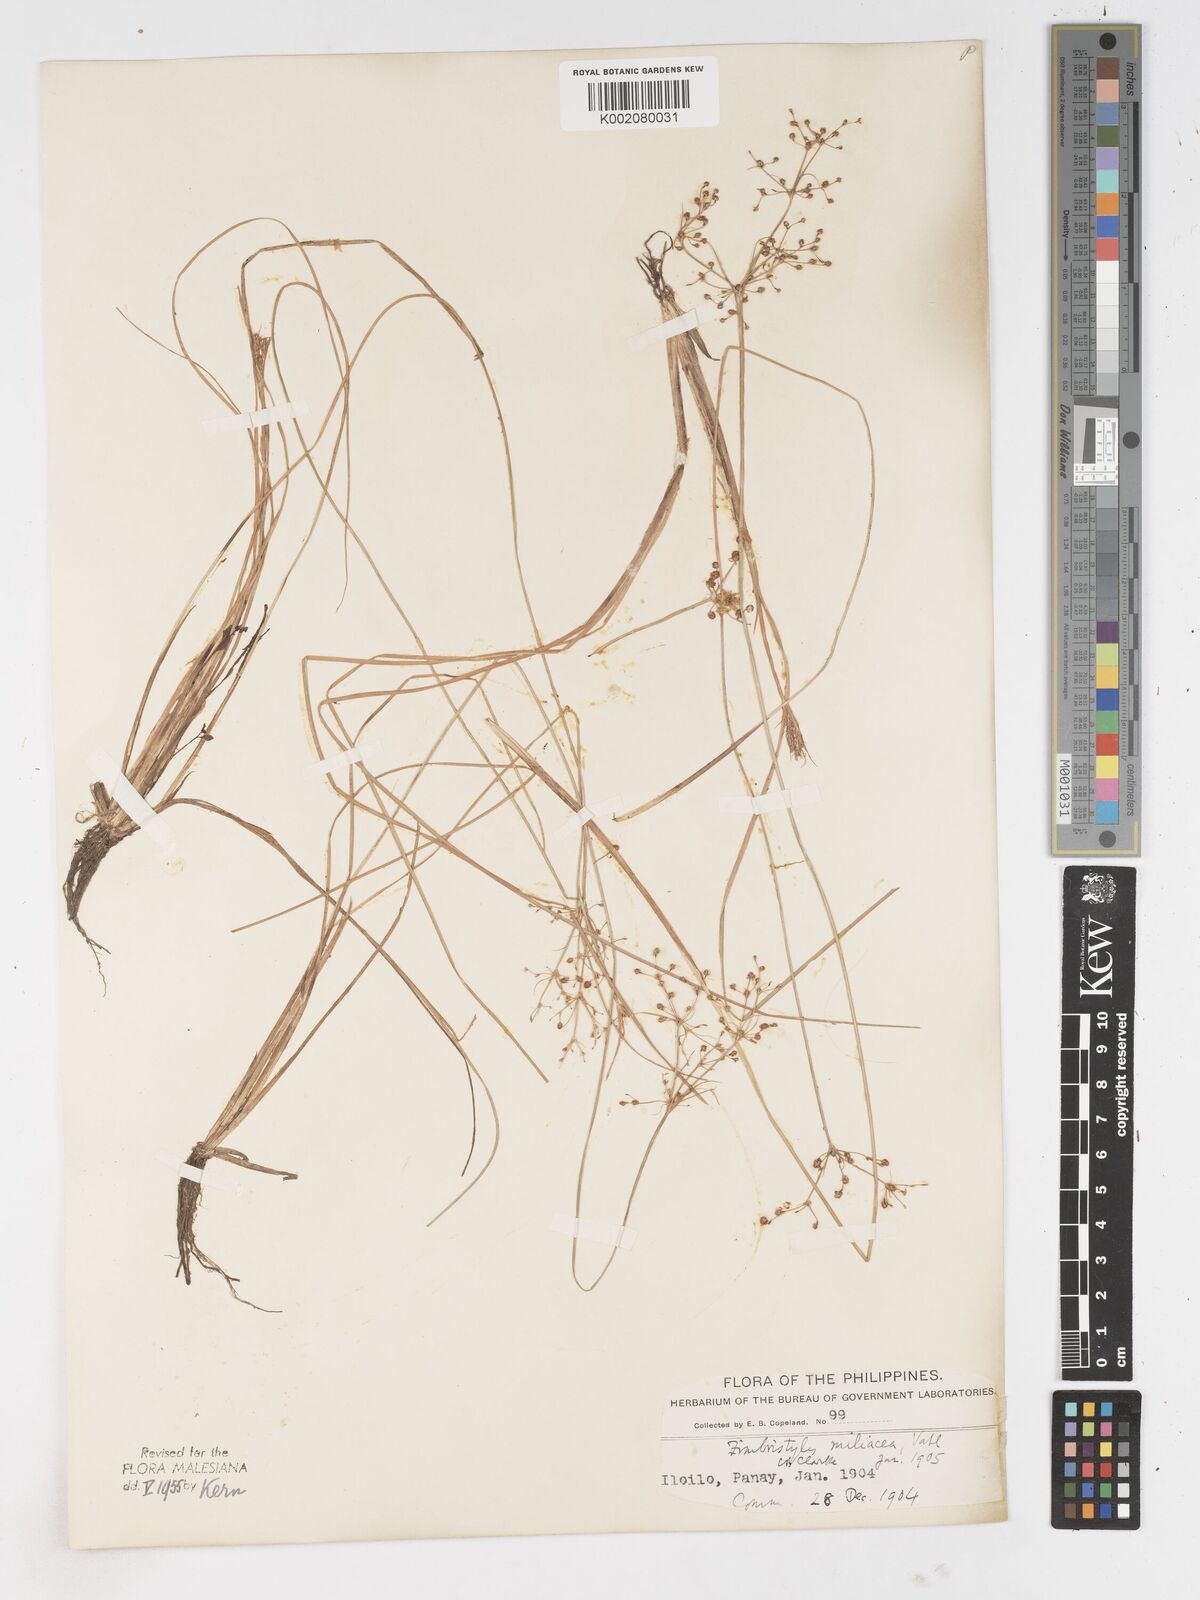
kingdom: Plantae
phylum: Tracheophyta
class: Liliopsida
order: Poales
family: Cyperaceae
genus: Fimbristylis
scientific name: Fimbristylis littoralis
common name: Fimbry
